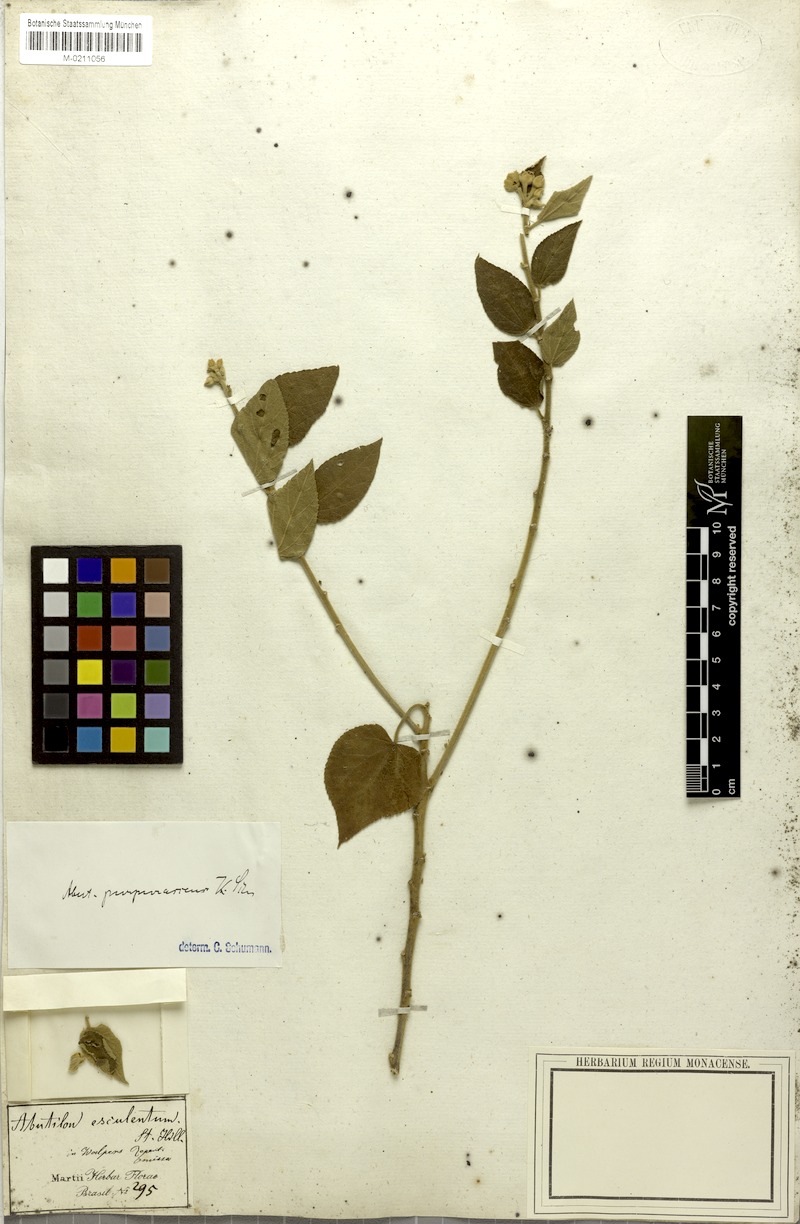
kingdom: Plantae
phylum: Tracheophyta
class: Magnoliopsida
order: Malvales
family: Malvaceae
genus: Bakeridesia
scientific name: Bakeridesia esculenta
